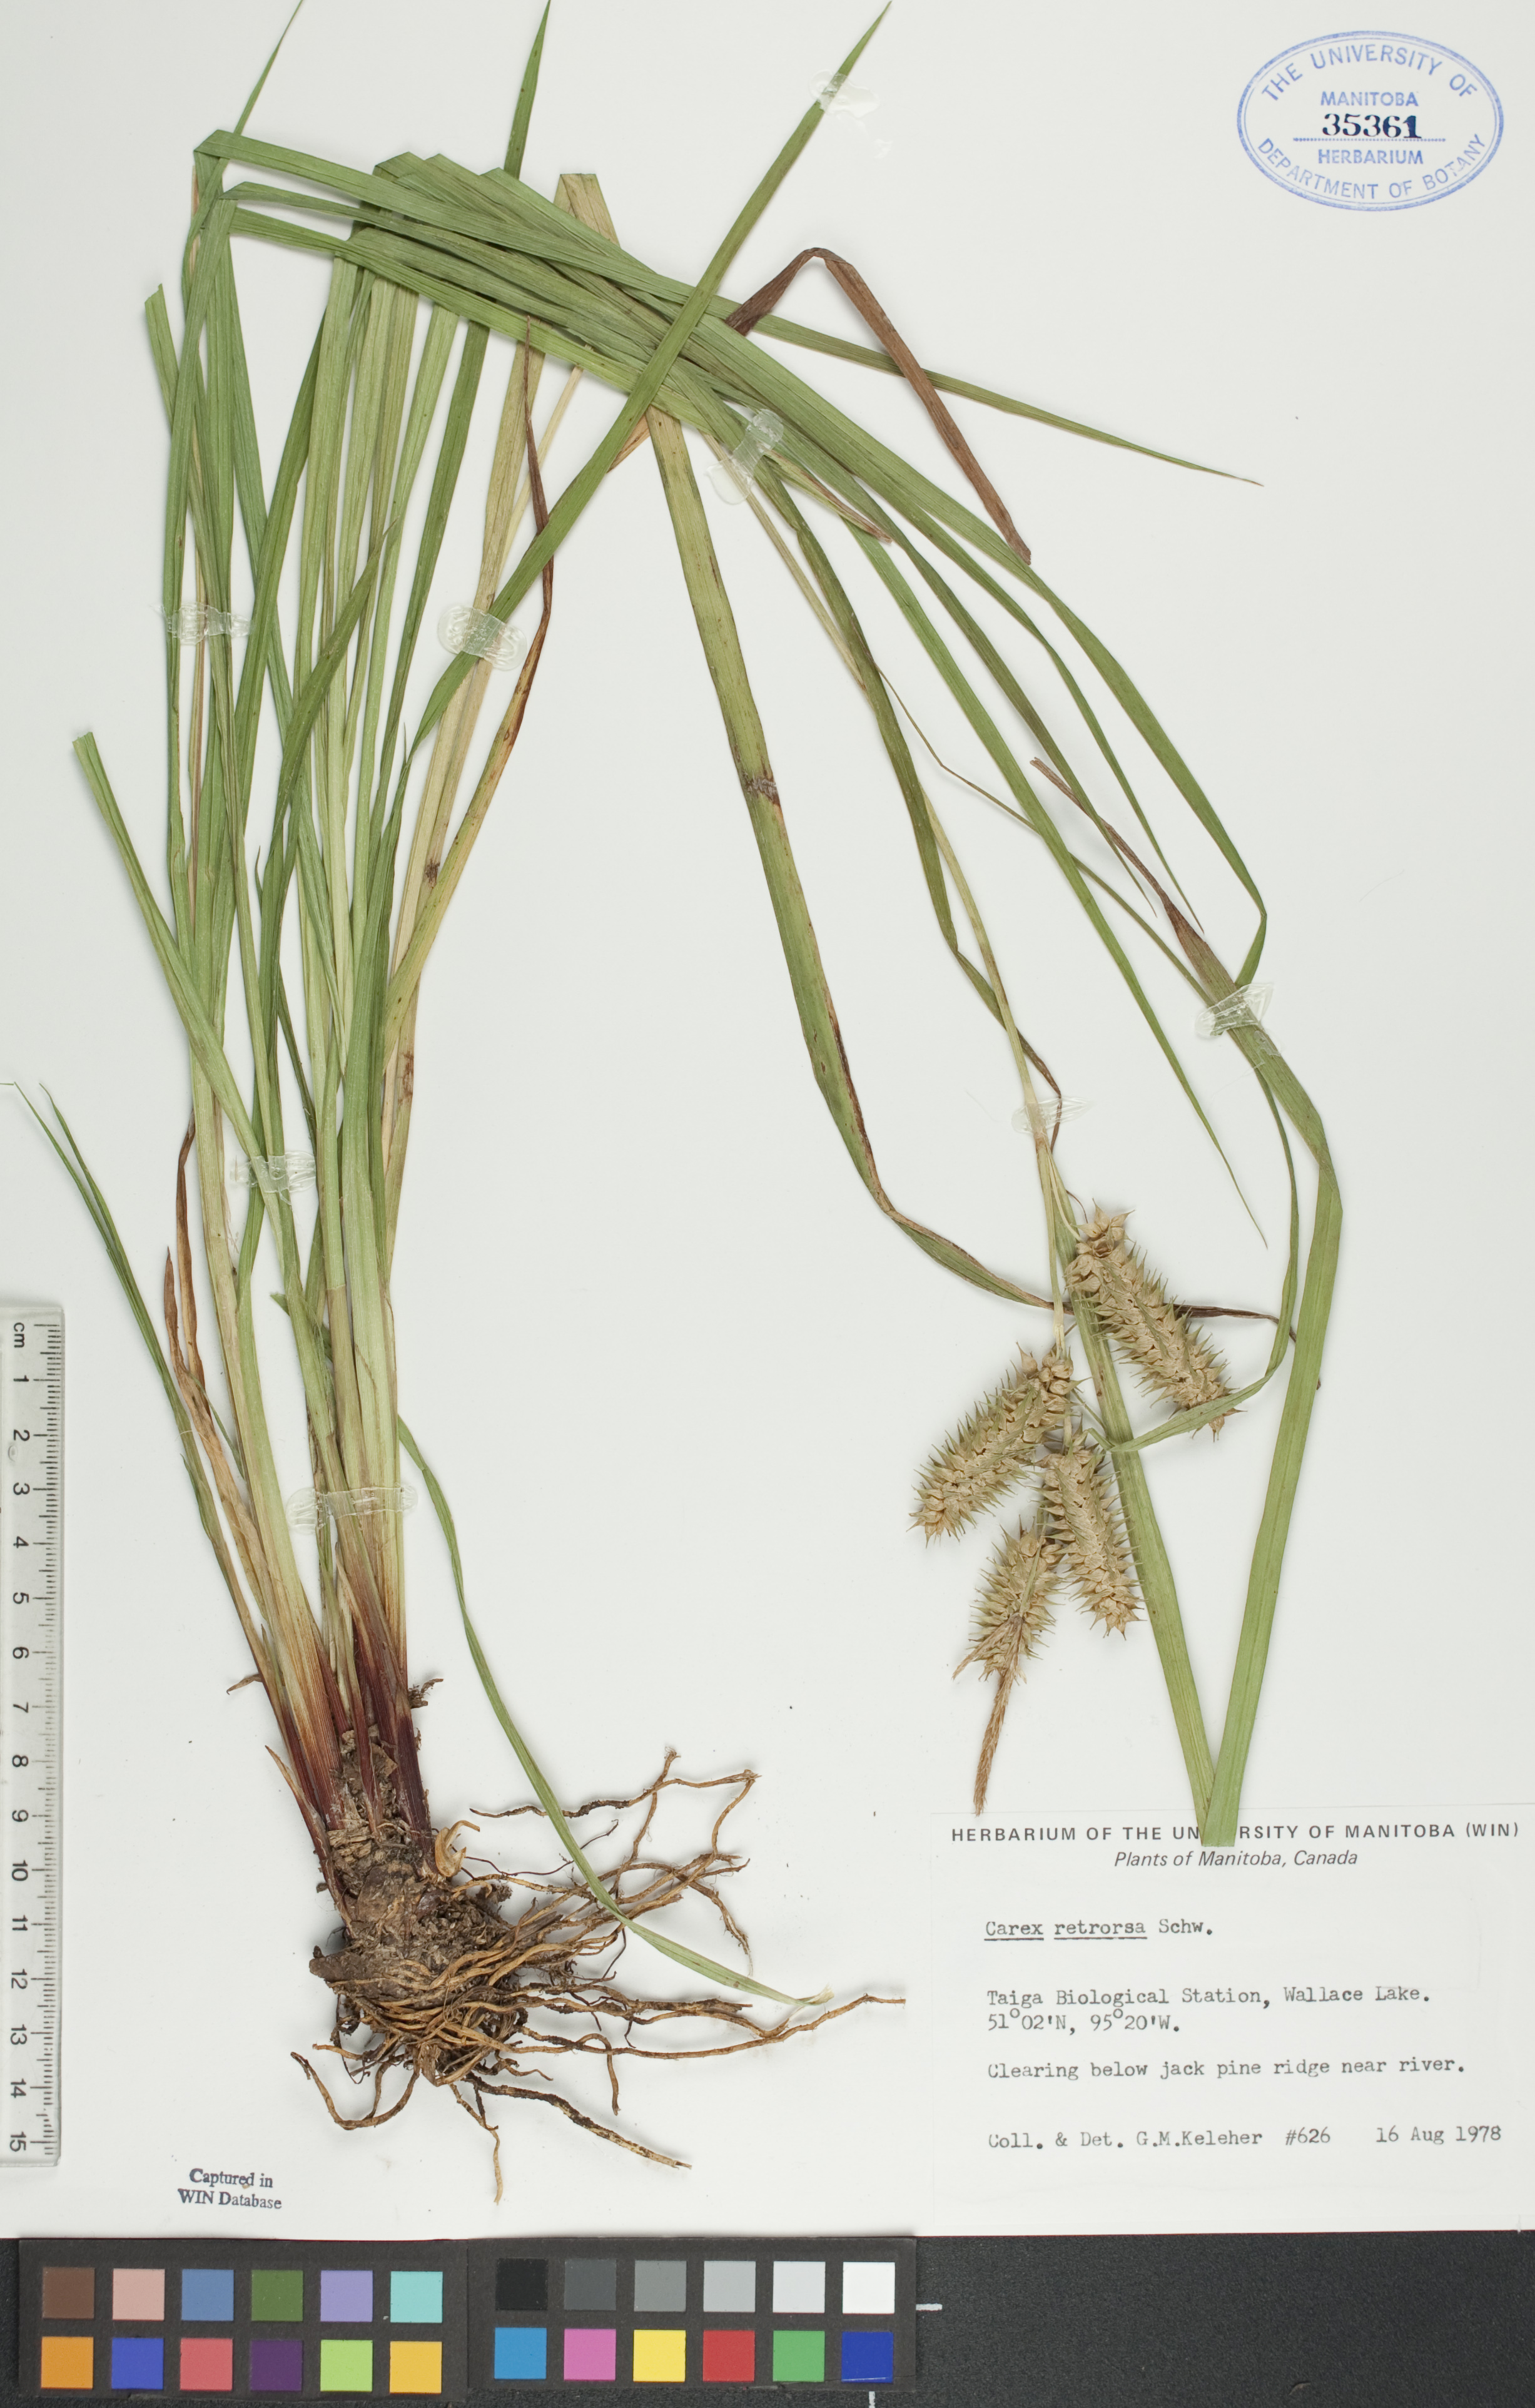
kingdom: Plantae
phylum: Tracheophyta
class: Liliopsida
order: Poales
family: Cyperaceae
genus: Carex
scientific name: Carex retrorsa
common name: Knot-sheath sedge
